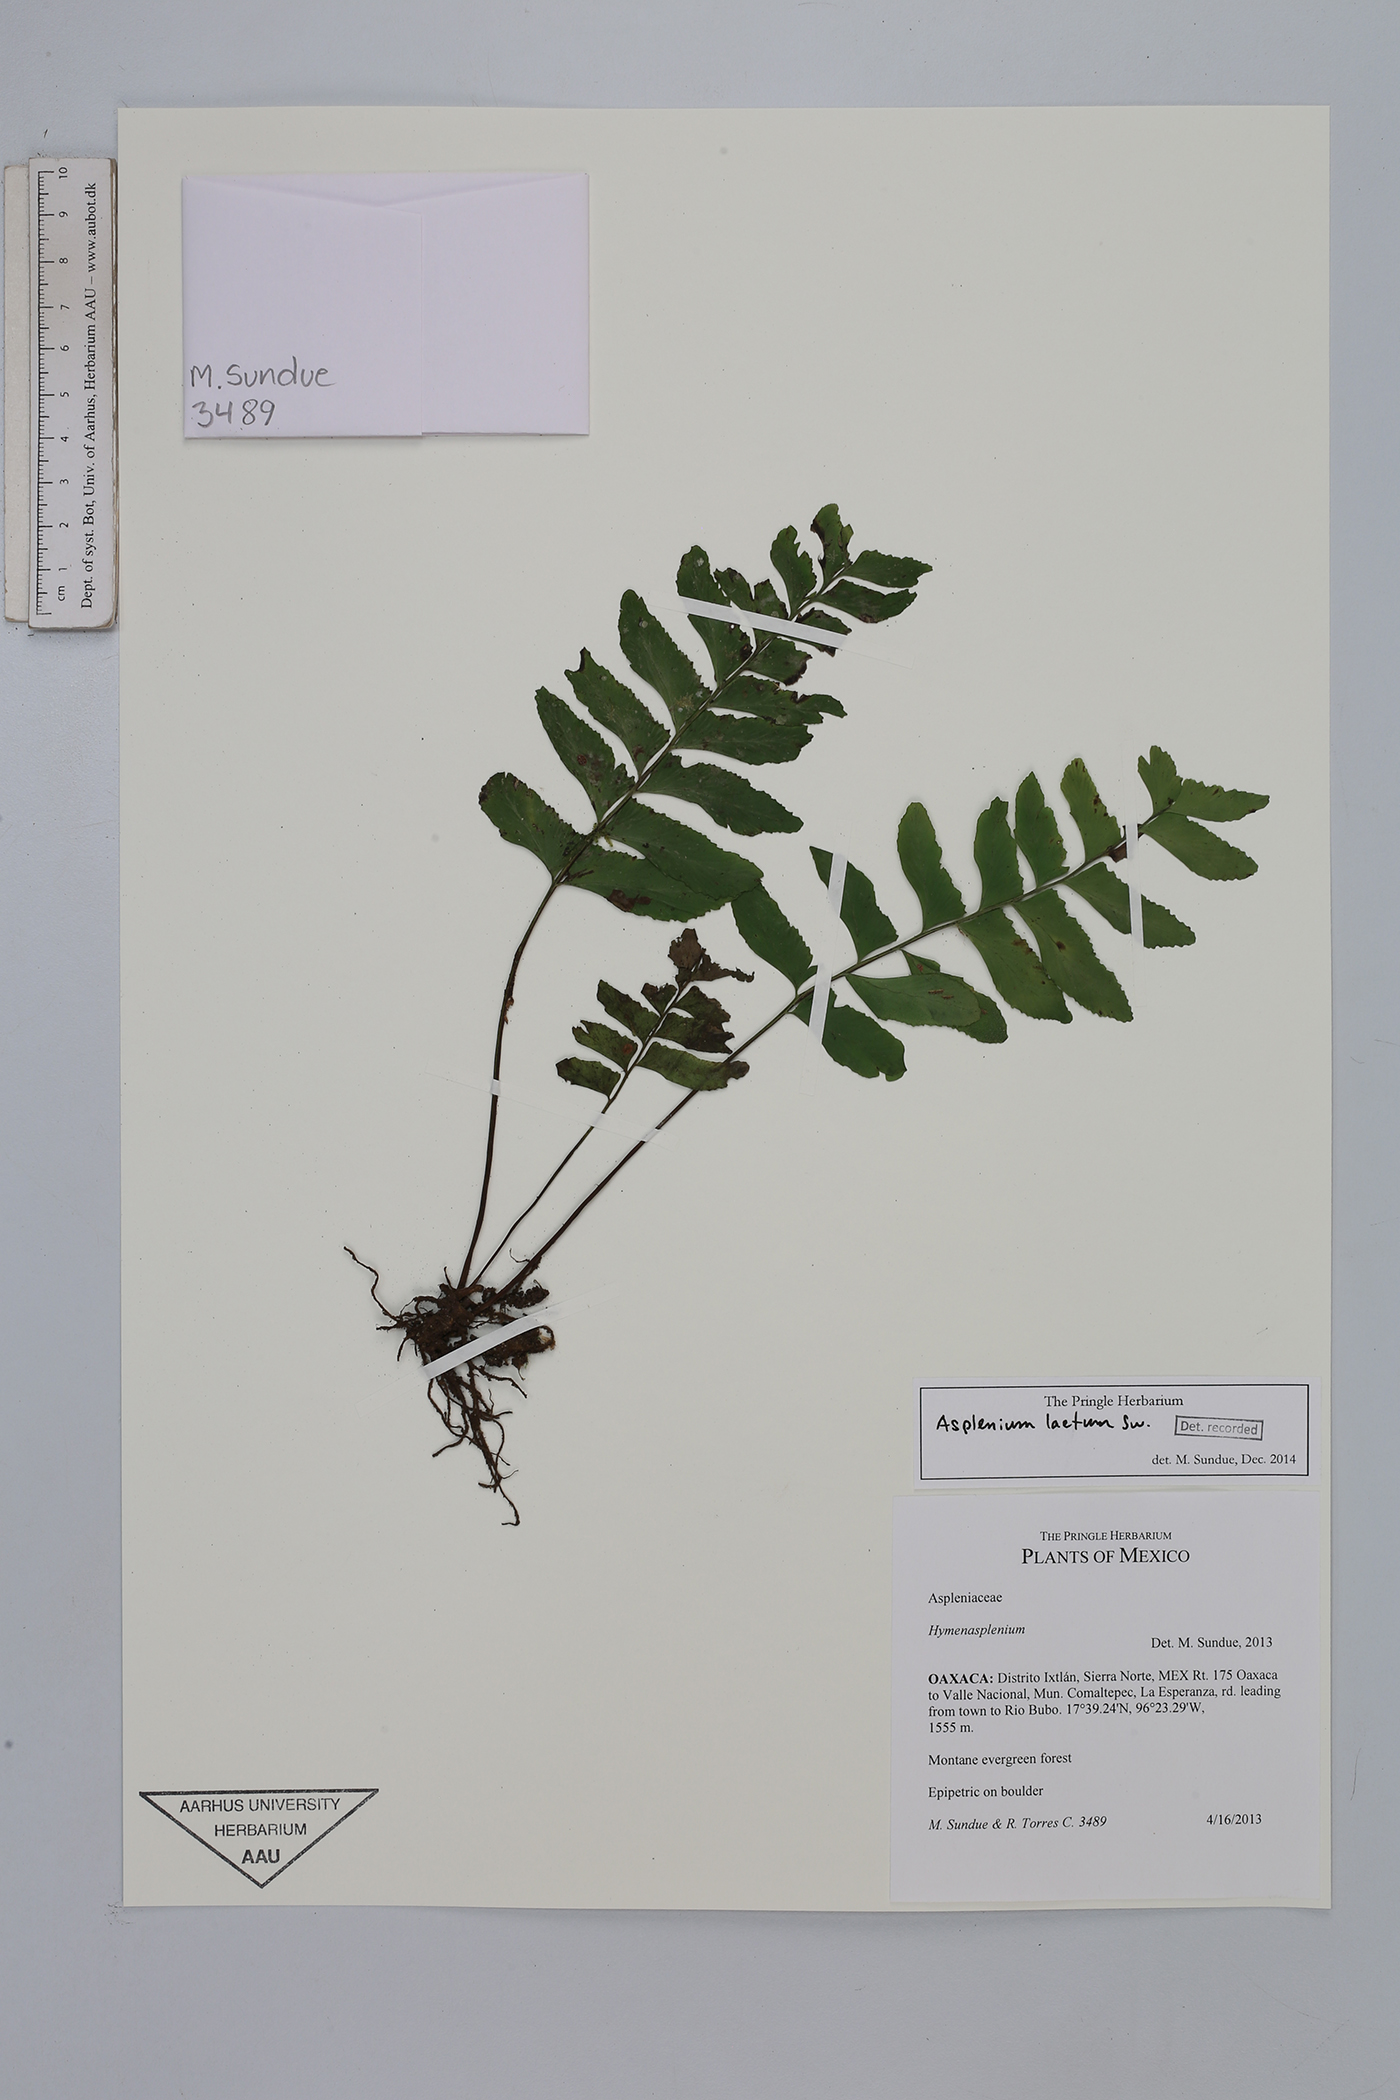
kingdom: Plantae
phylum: Tracheophyta
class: Polypodiopsida
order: Polypodiales
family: Aspleniaceae
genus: Hymenasplenium
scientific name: Hymenasplenium laetum
